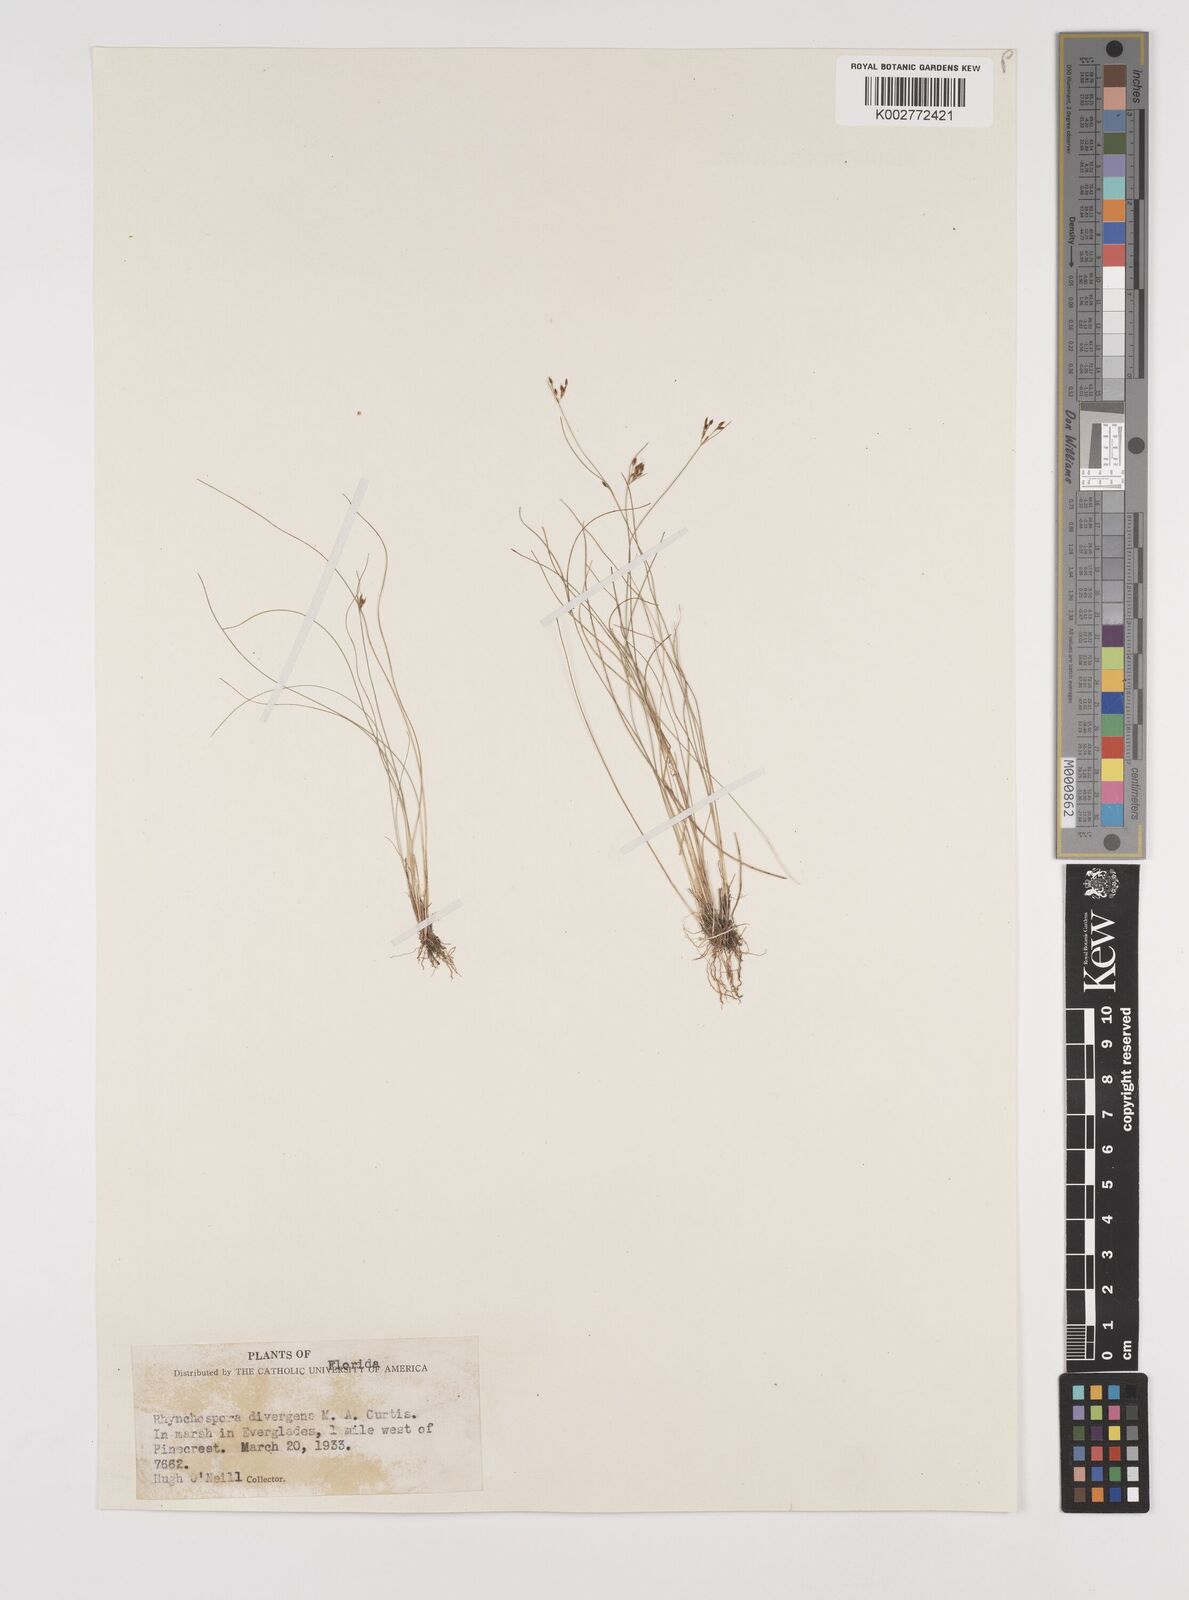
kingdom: Plantae
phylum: Tracheophyta
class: Liliopsida
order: Poales
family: Cyperaceae
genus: Rhynchospora
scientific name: Rhynchospora divergens
